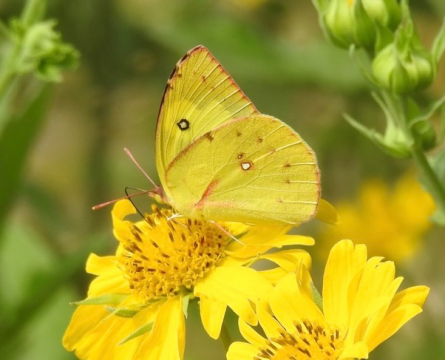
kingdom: Animalia
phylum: Arthropoda
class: Insecta
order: Lepidoptera
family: Pieridae
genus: Zerene
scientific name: Zerene cesonia
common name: Southern Dogface
